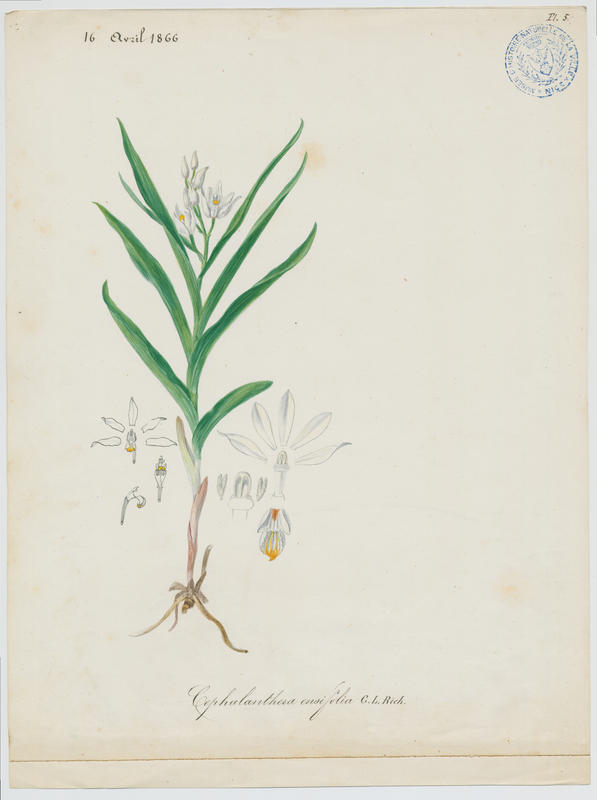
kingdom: Plantae
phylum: Tracheophyta
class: Liliopsida
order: Asparagales
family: Orchidaceae
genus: Cephalanthera
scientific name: Cephalanthera longifolia
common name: Narrow-leaved helleborine
